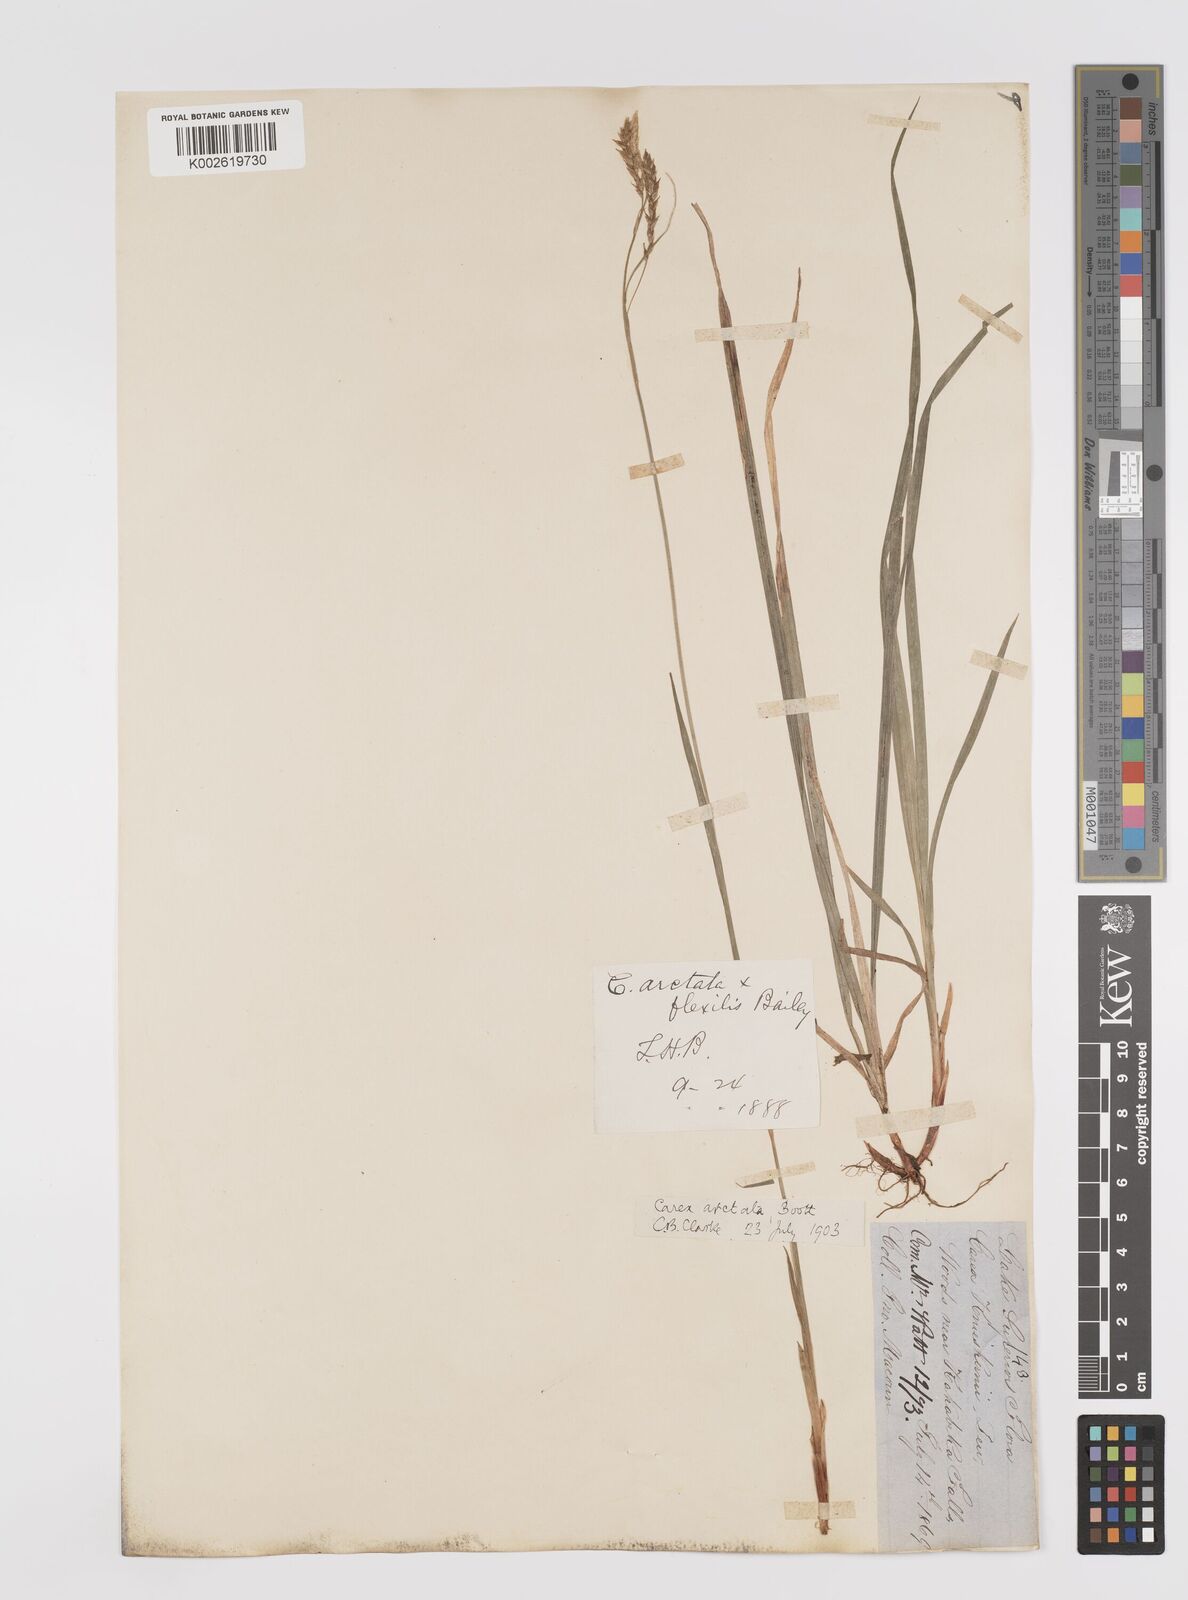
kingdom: Plantae
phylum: Tracheophyta
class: Liliopsida
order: Poales
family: Cyperaceae
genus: Carex
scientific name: Carex knieskernii
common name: Knieskern's sedge
